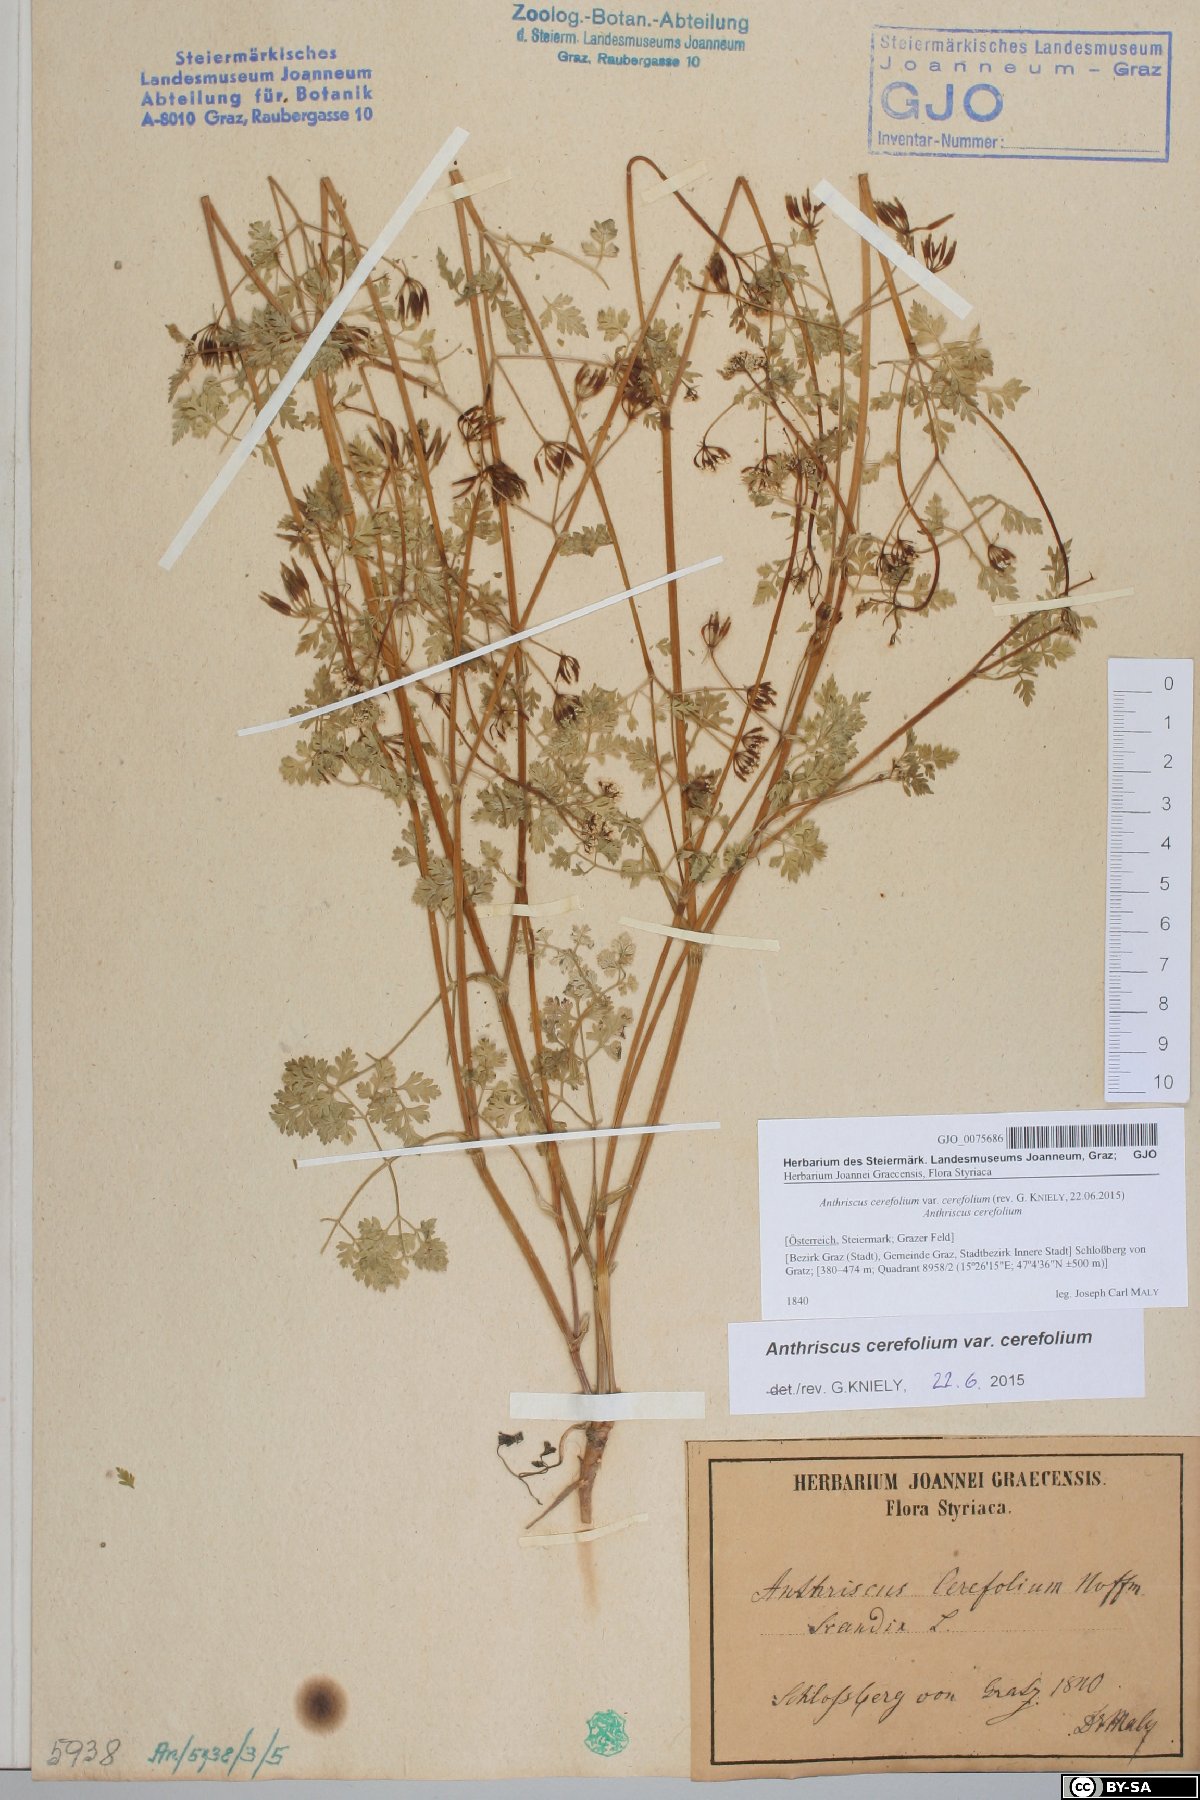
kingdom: Plantae
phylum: Tracheophyta
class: Magnoliopsida
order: Apiales
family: Apiaceae
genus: Anthriscus
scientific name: Anthriscus cerefolium
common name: Garden chervil
